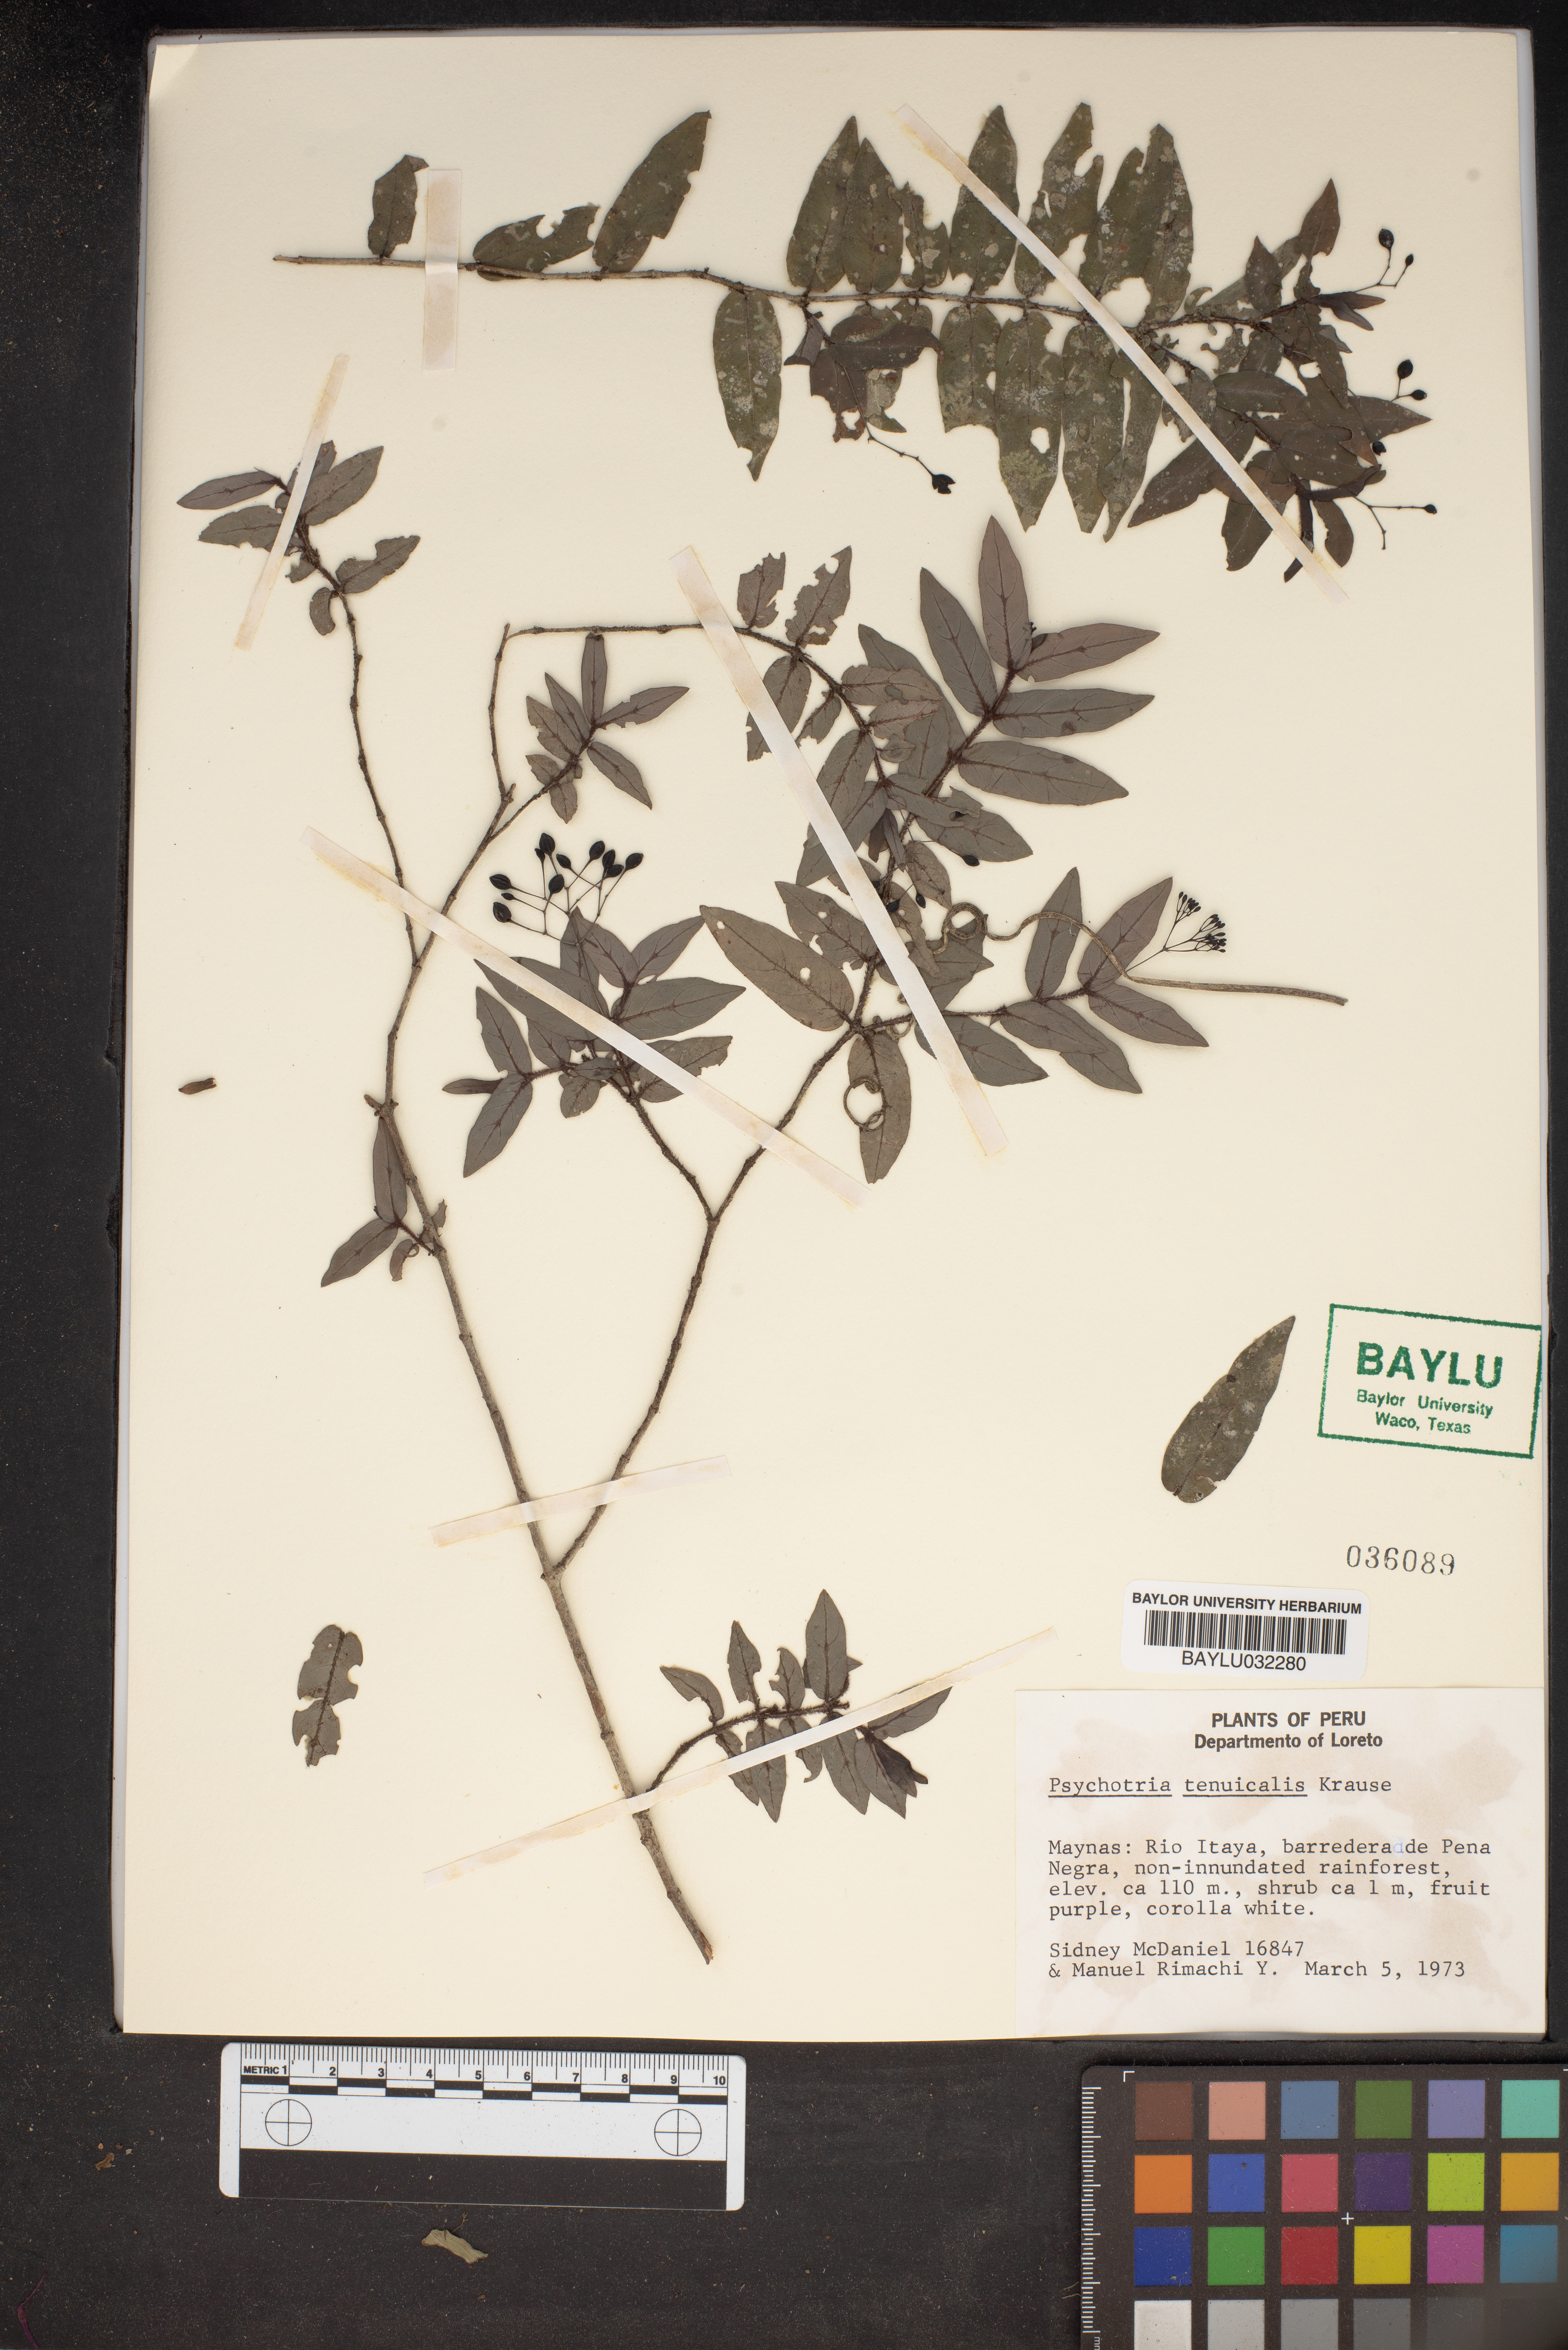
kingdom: Plantae
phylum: Tracheophyta
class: Magnoliopsida
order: Gentianales
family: Rubiaceae
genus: Psychotria
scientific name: Psychotria tenuicaulis
